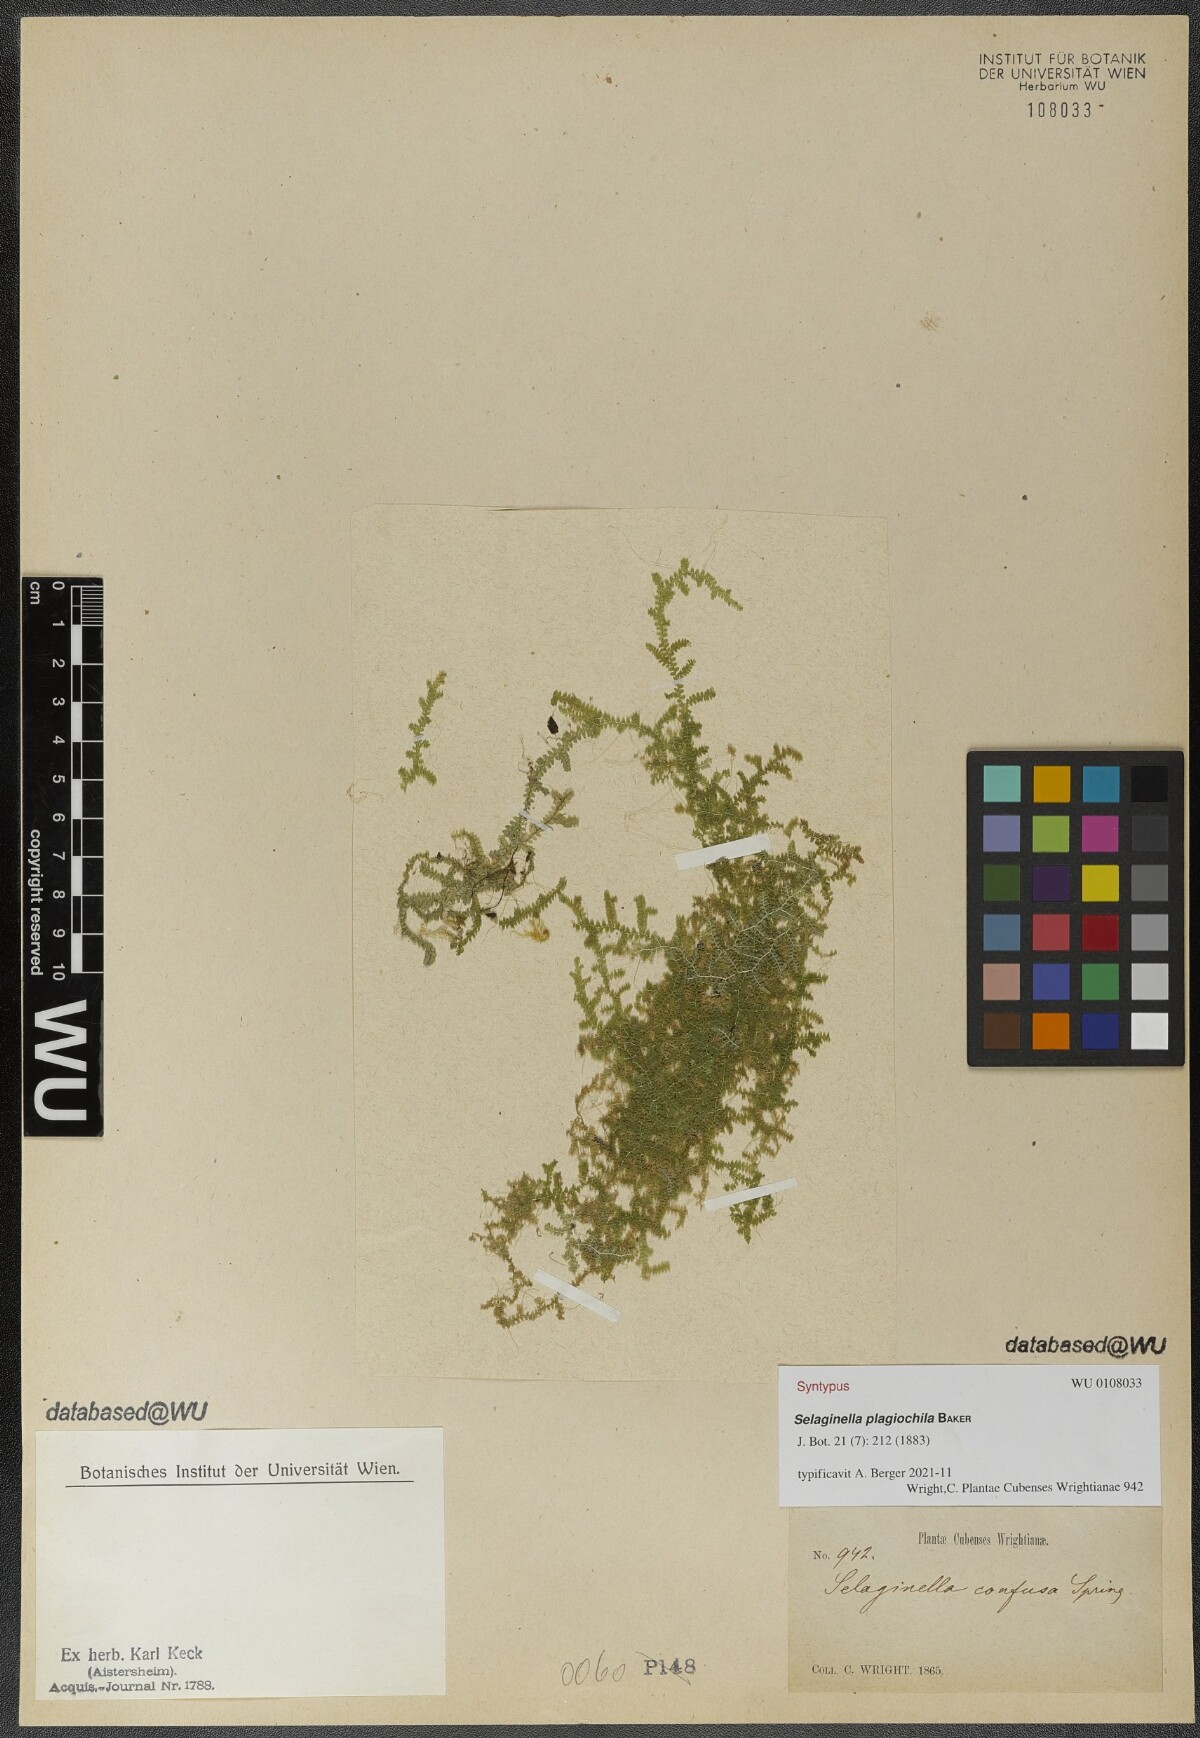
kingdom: Plantae
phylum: Tracheophyta
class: Lycopodiopsida
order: Selaginellales
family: Selaginellaceae
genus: Selaginella
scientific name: Selaginella plagiochila
